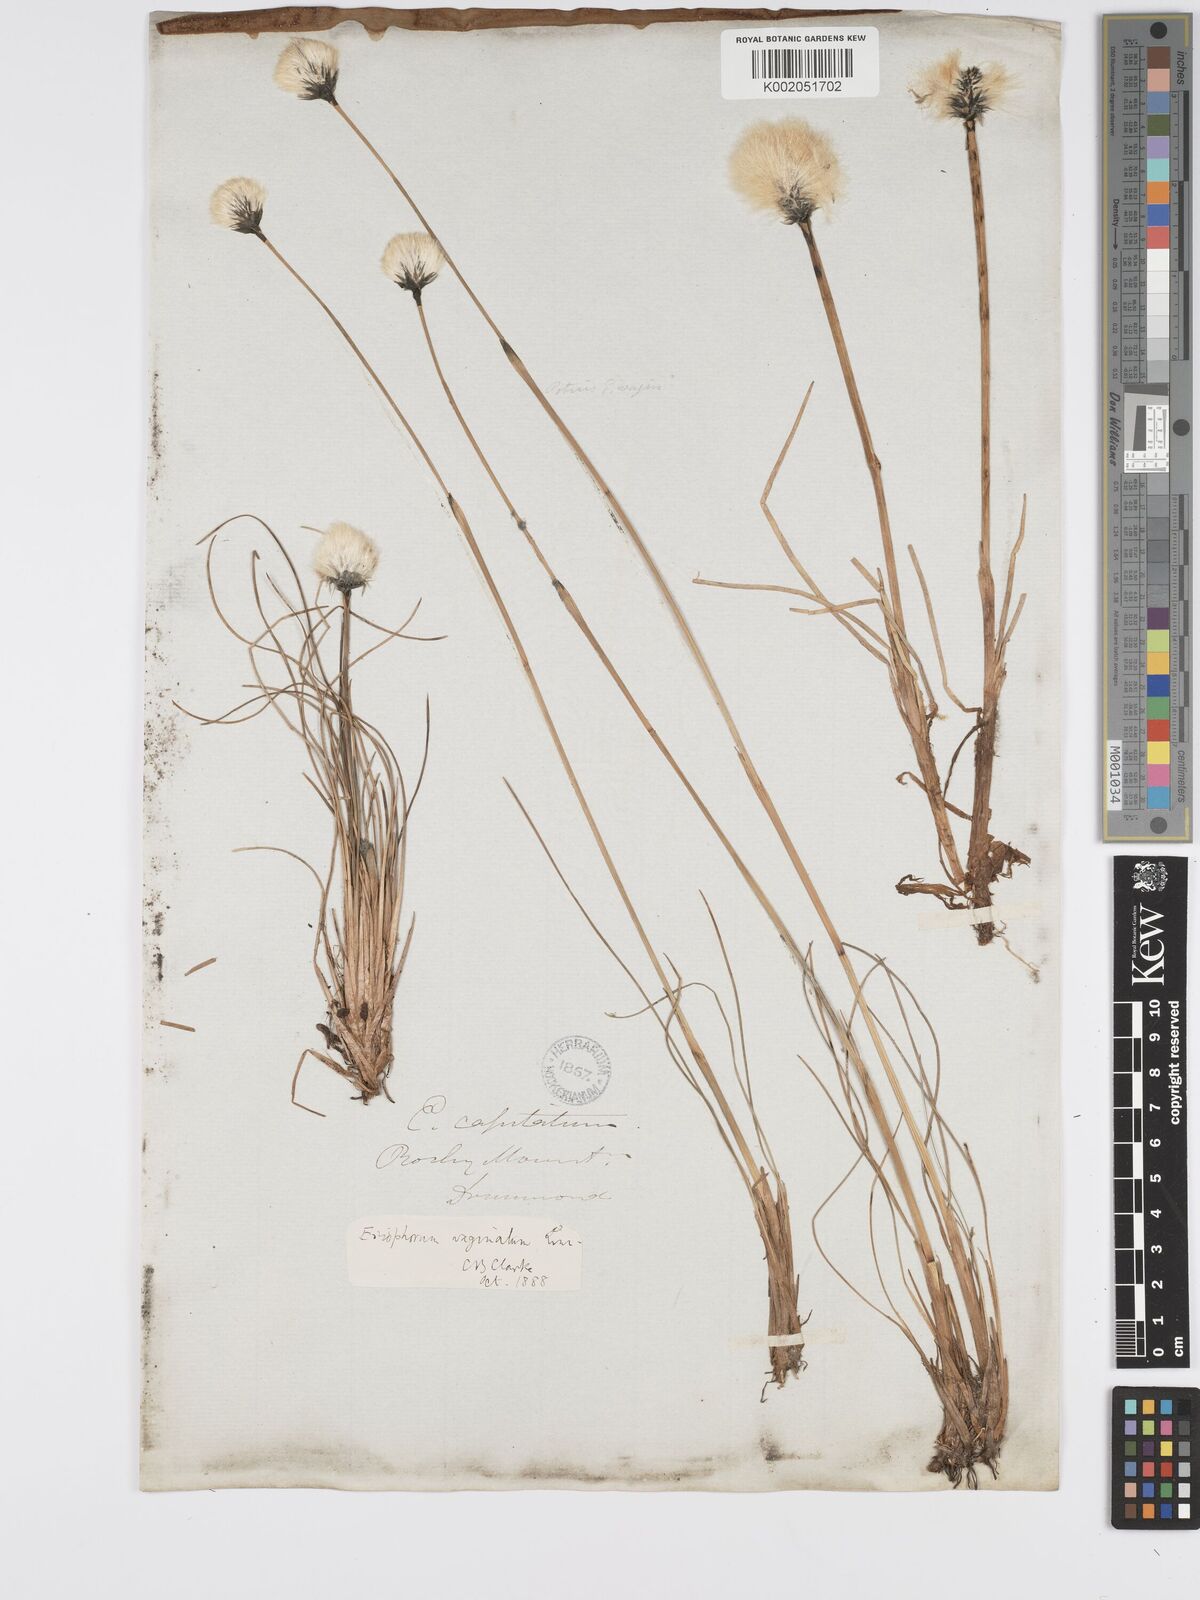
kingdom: Plantae
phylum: Tracheophyta
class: Liliopsida
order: Poales
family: Cyperaceae
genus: Eriophorum
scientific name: Eriophorum vaginatum
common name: Hare's-tail cottongrass
